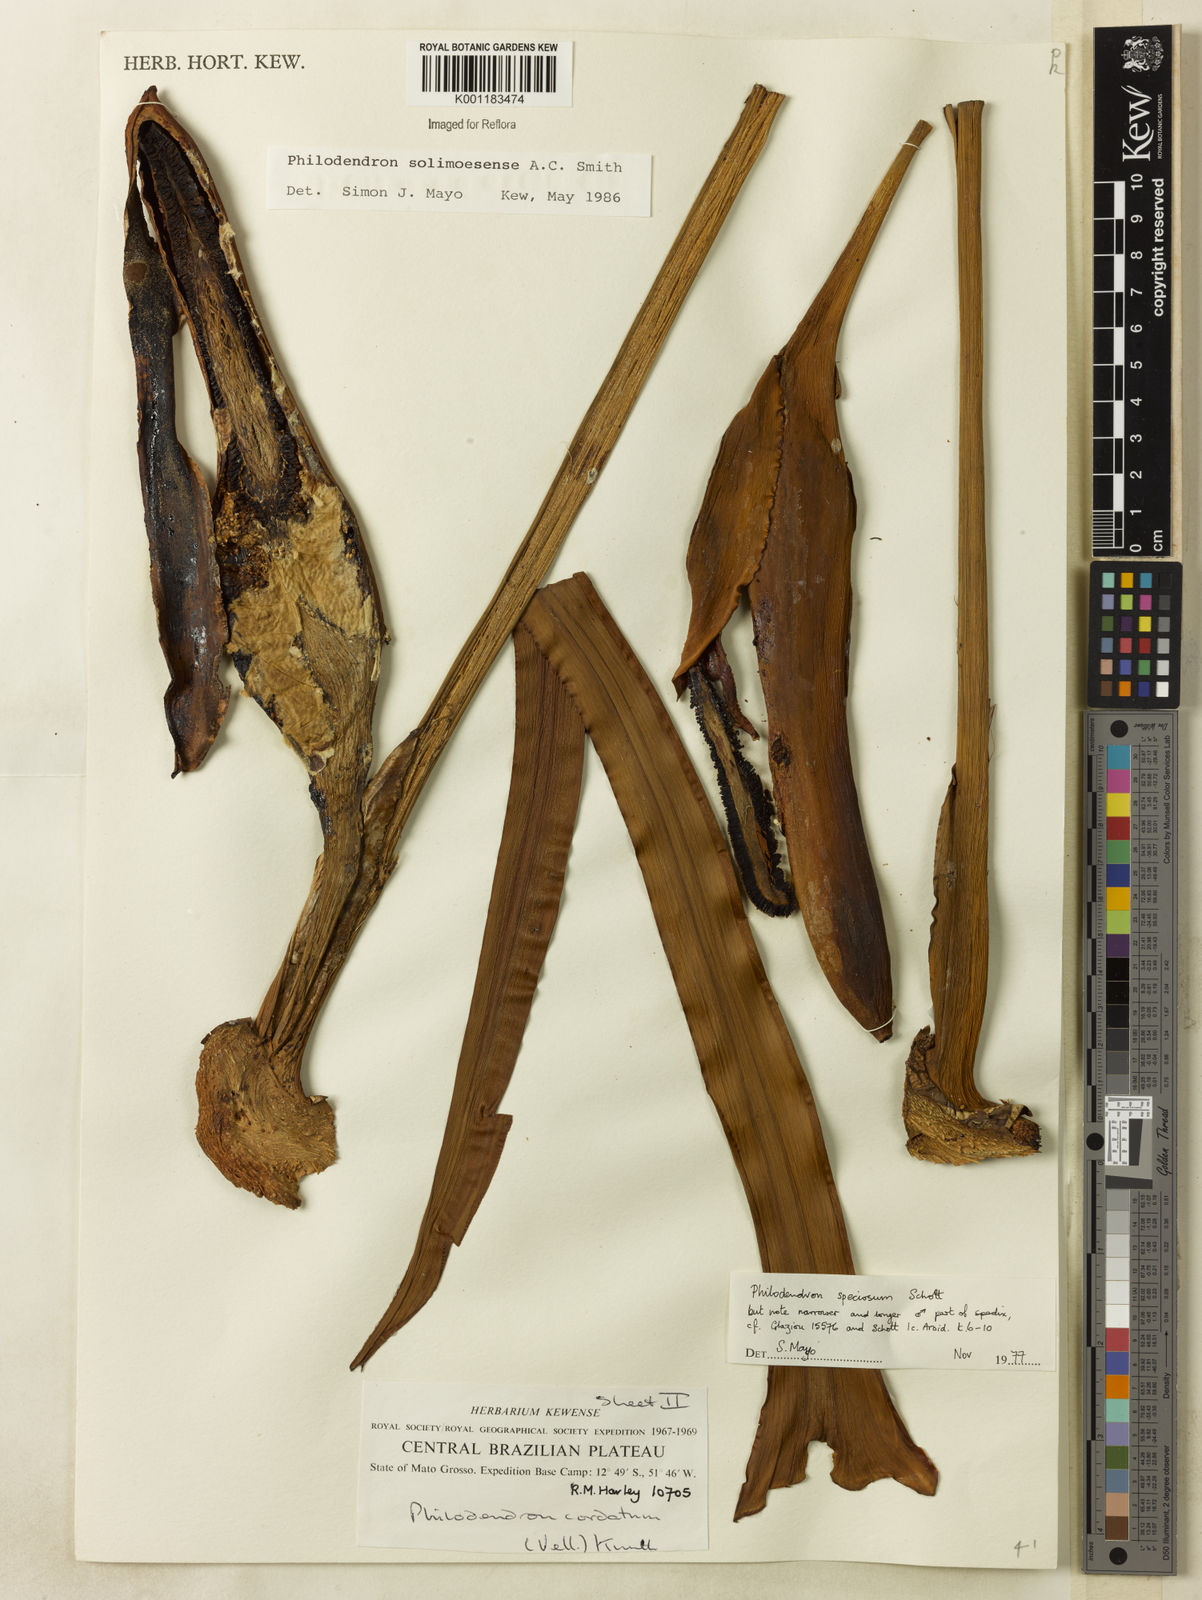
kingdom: Plantae
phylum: Tracheophyta
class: Liliopsida
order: Alismatales
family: Araceae
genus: Thaumatophyllum
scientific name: Thaumatophyllum solimoesense
